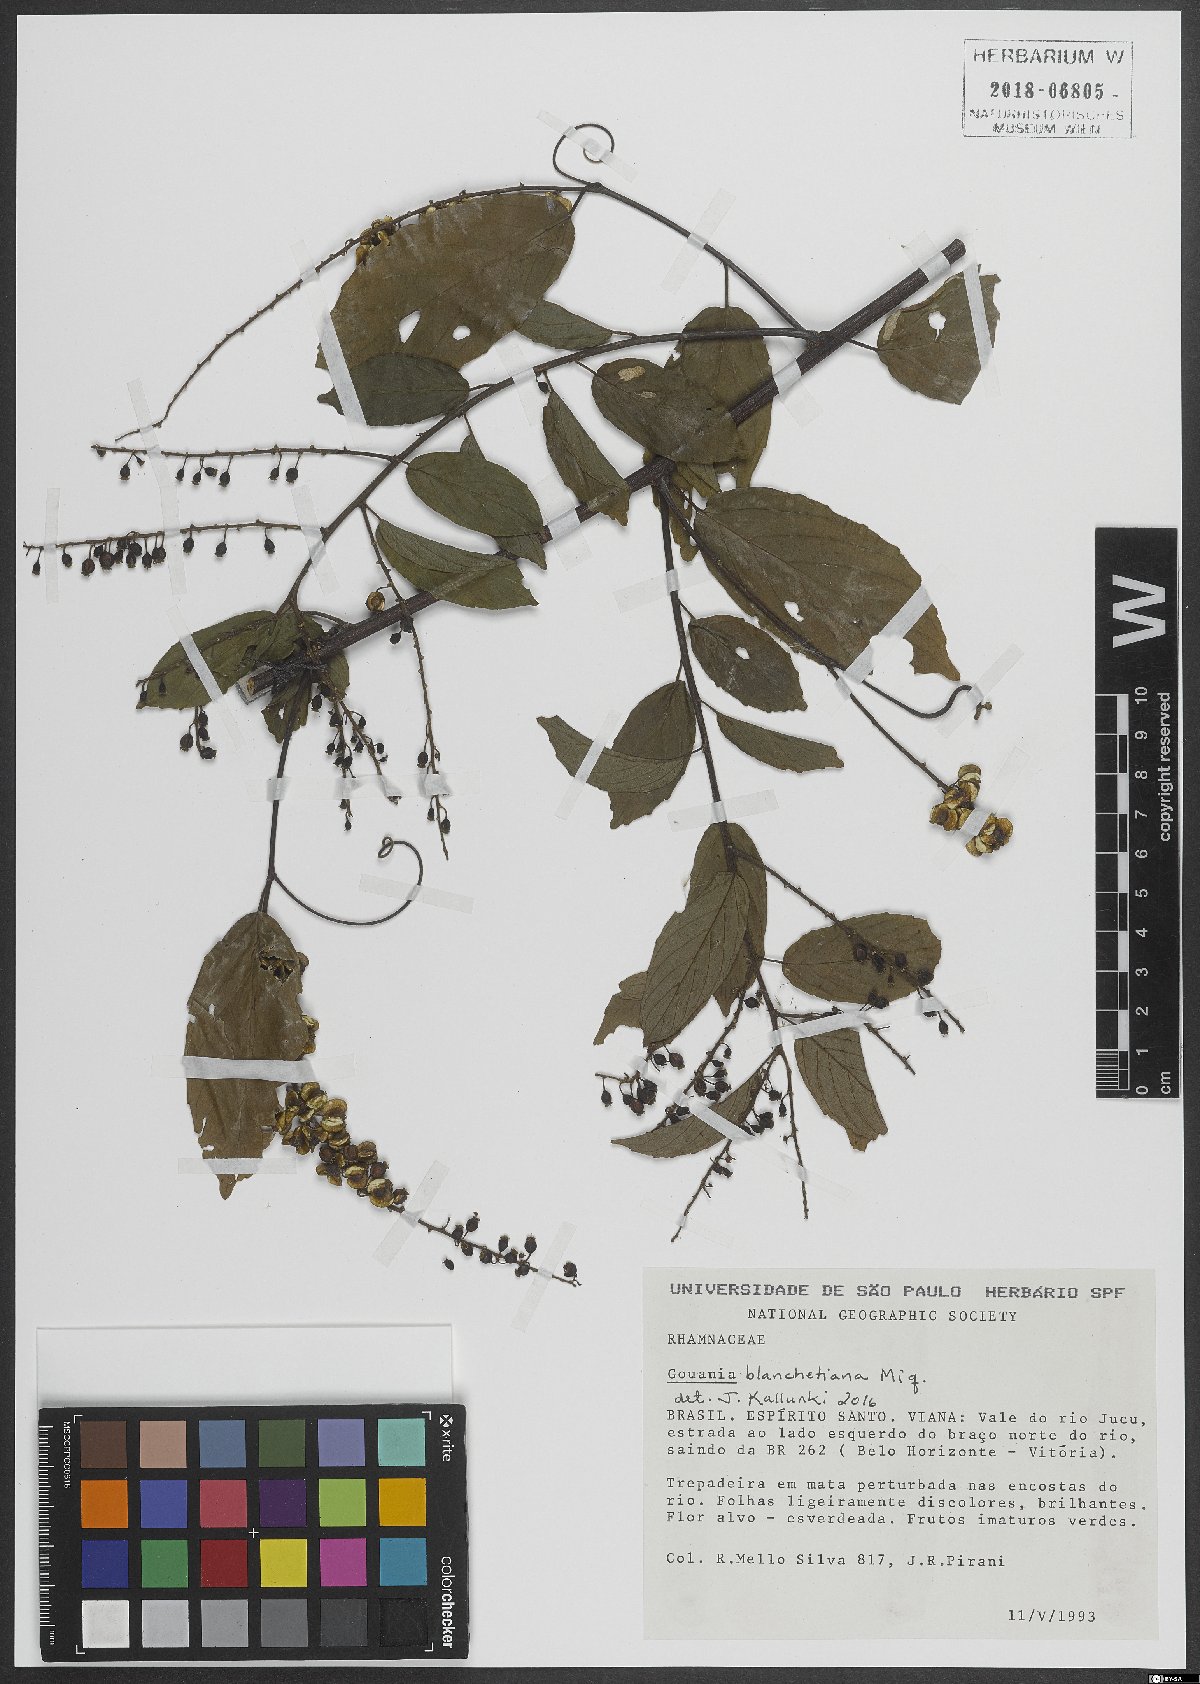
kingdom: Plantae
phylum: Tracheophyta
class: Magnoliopsida
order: Rosales
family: Rhamnaceae
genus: Gouania
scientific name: Gouania blanchetiana
